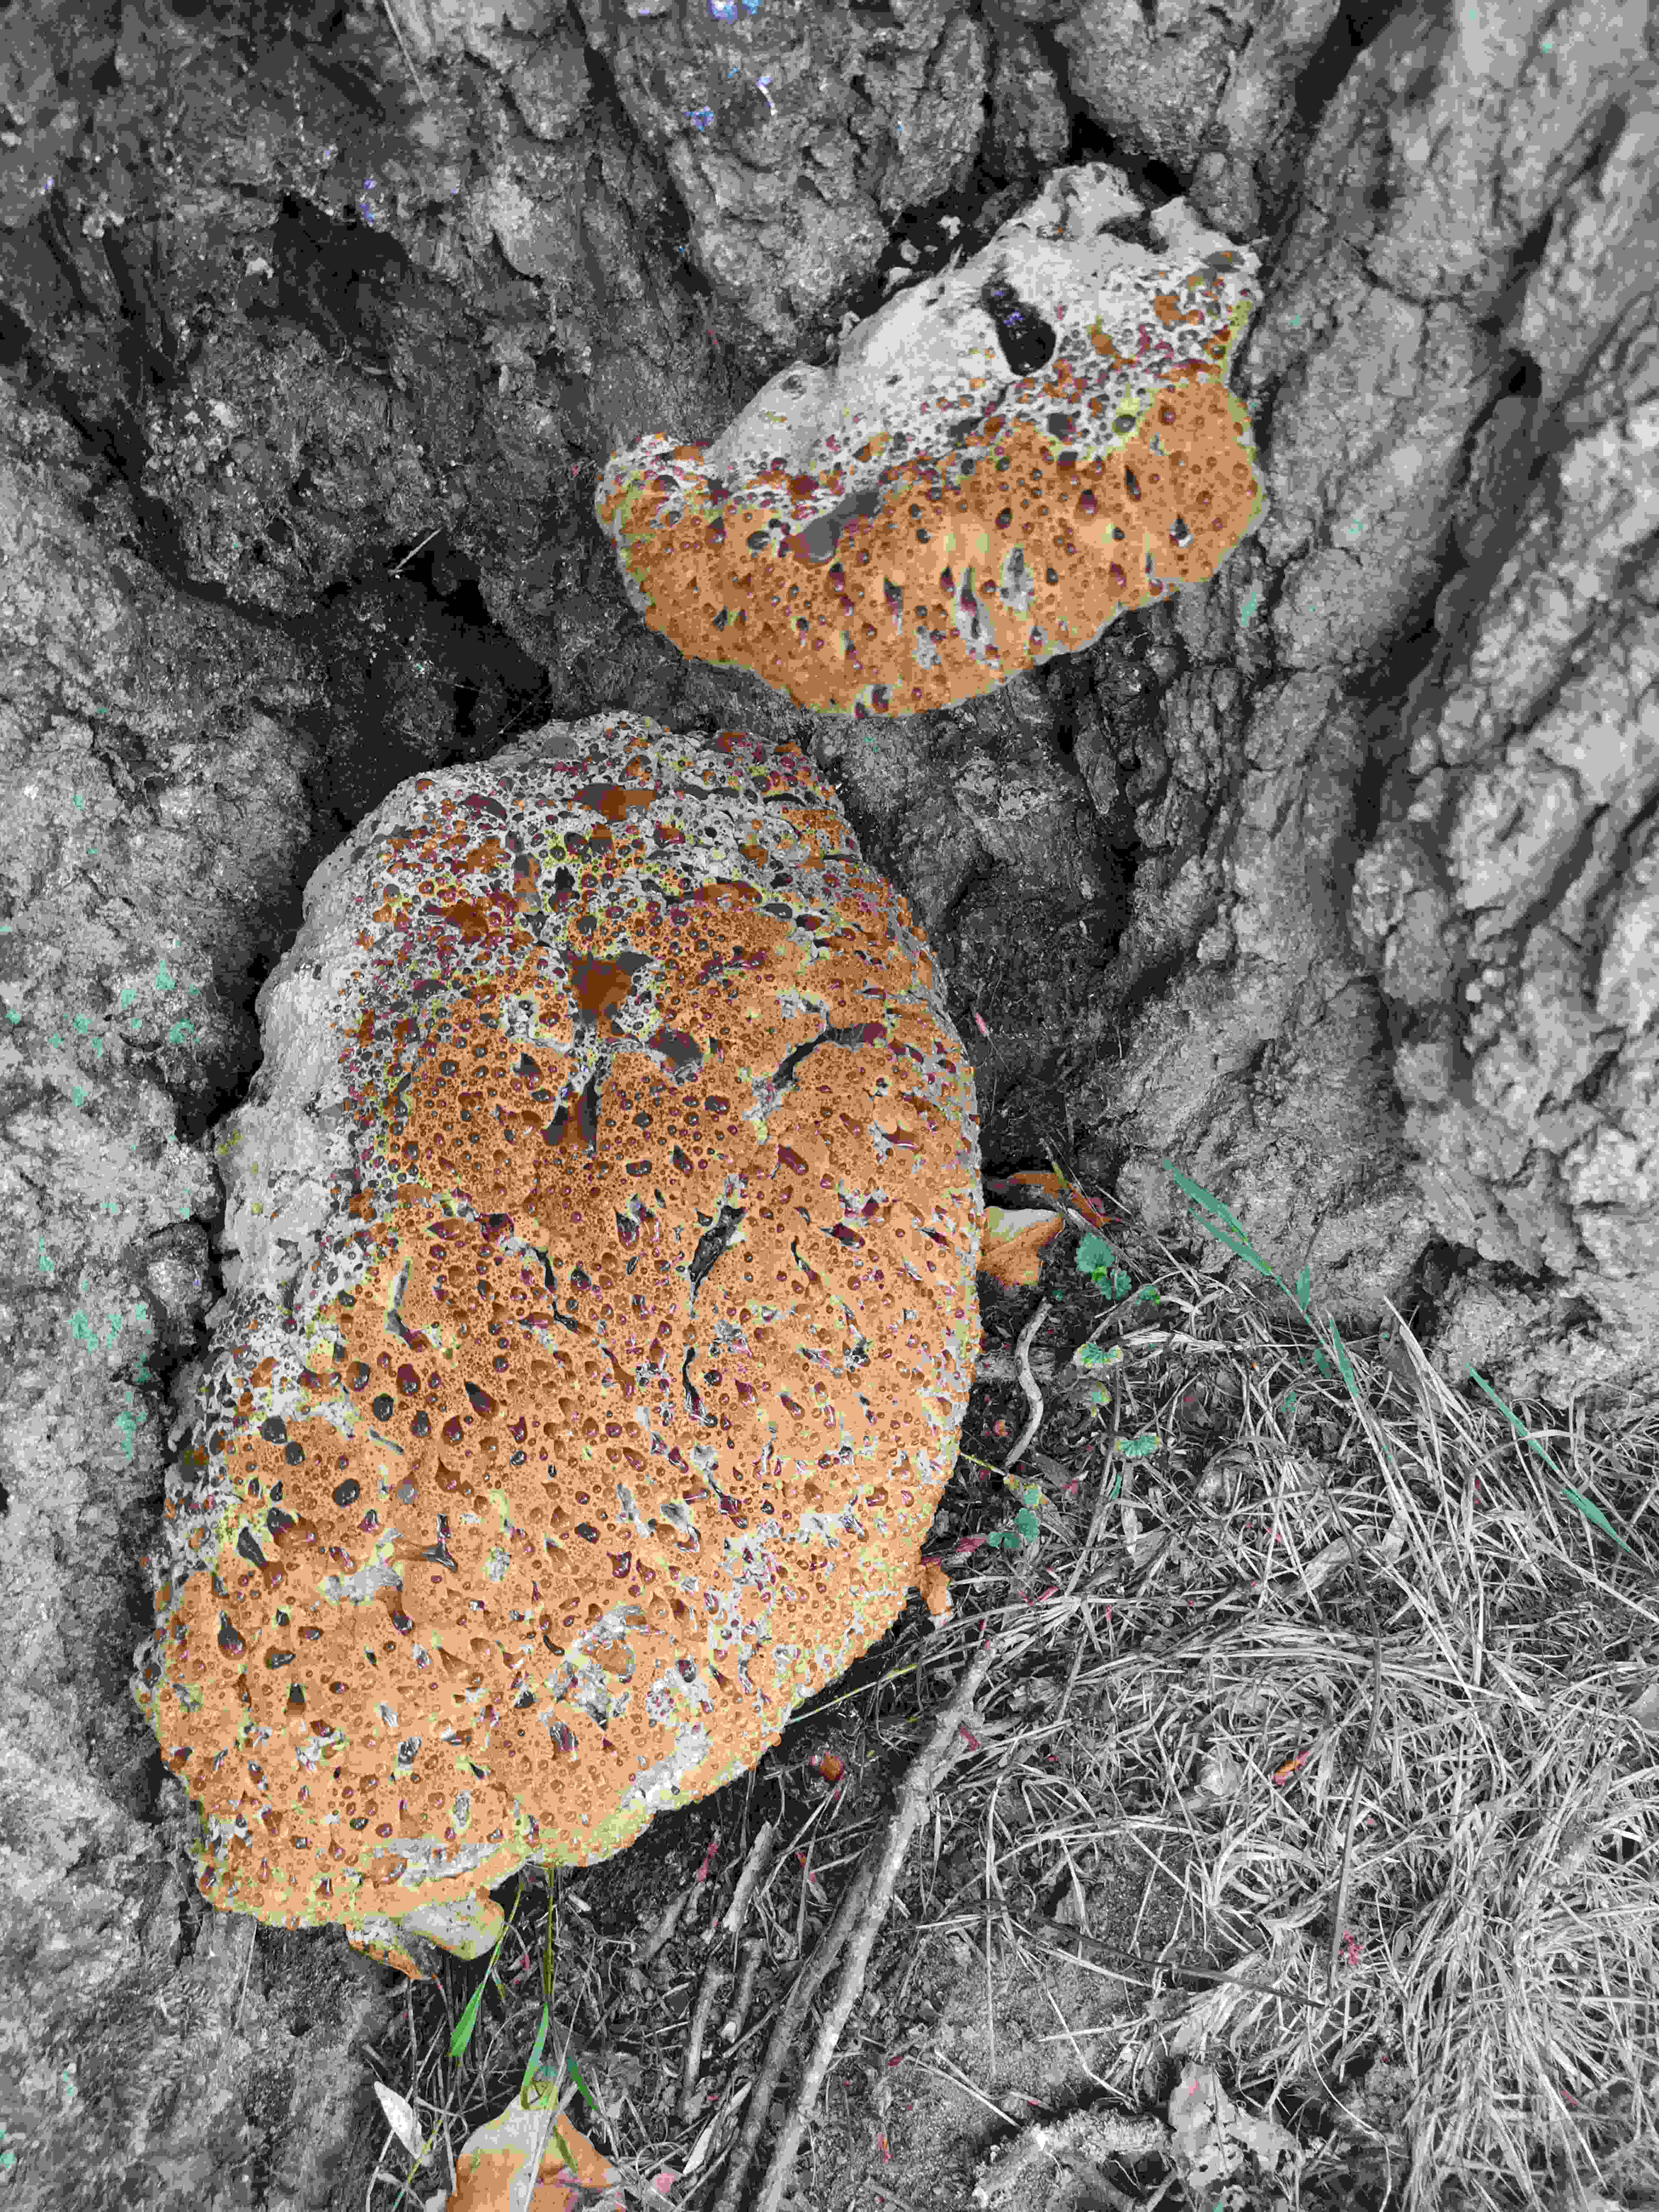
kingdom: Fungi
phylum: Basidiomycota
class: Agaricomycetes
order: Hymenochaetales
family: Hymenochaetaceae
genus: Pseudoinonotus
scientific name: Pseudoinonotus dryadeus
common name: ege-spejlporesvamp
